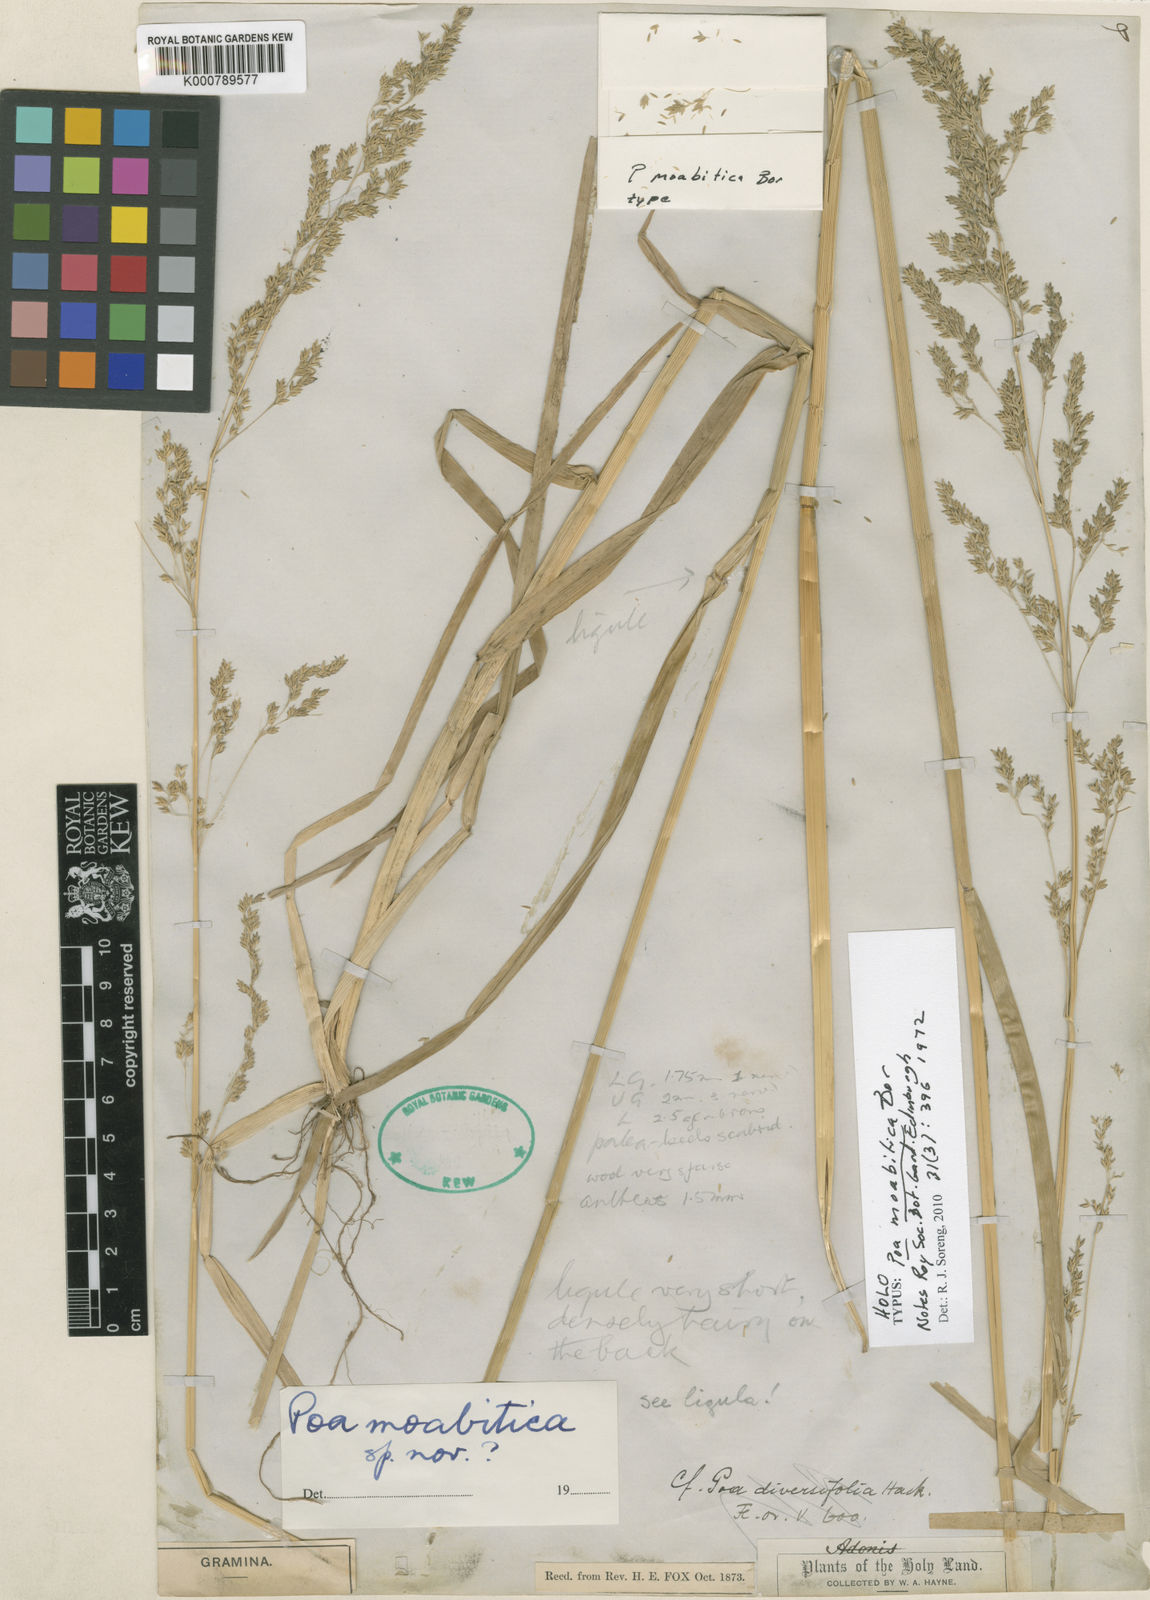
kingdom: Plantae
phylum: Tracheophyta
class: Liliopsida
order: Poales
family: Poaceae
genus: Poa
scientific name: Poa moabitica
